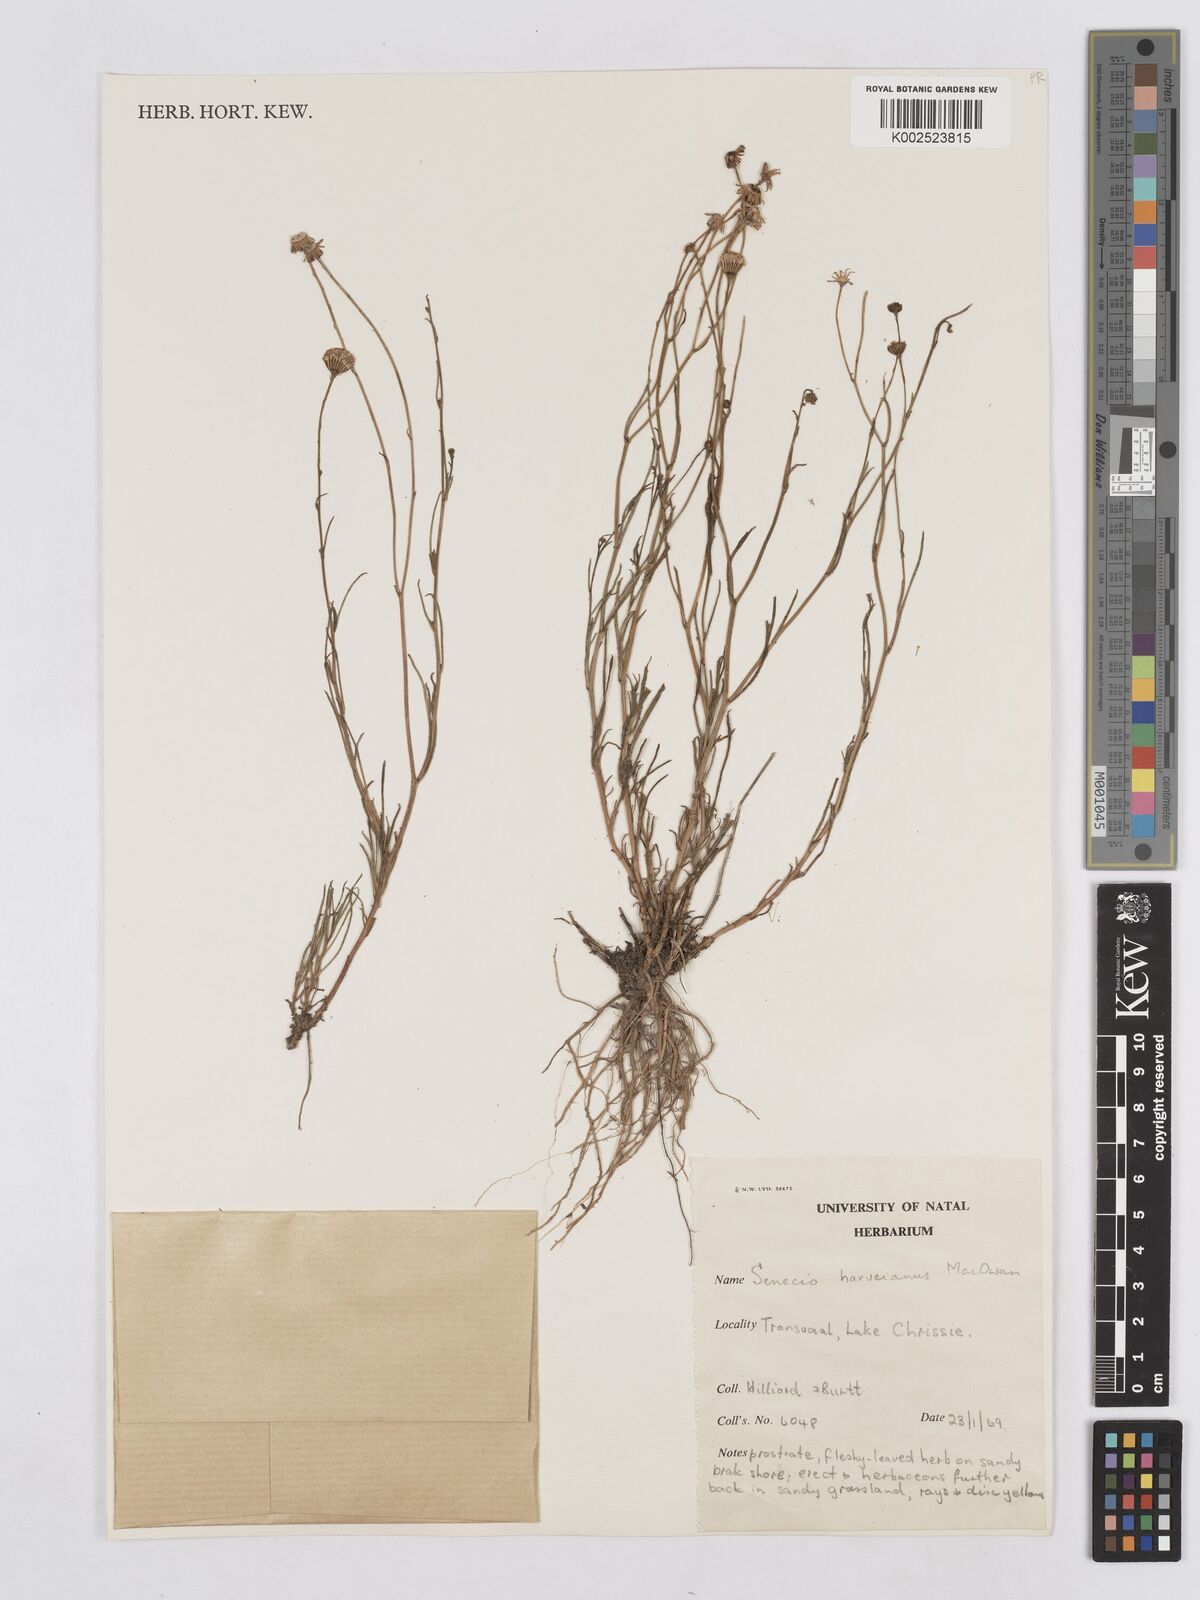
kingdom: Plantae
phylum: Tracheophyta
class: Magnoliopsida
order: Asterales
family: Asteraceae
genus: Senecio
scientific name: Senecio harveyanus
